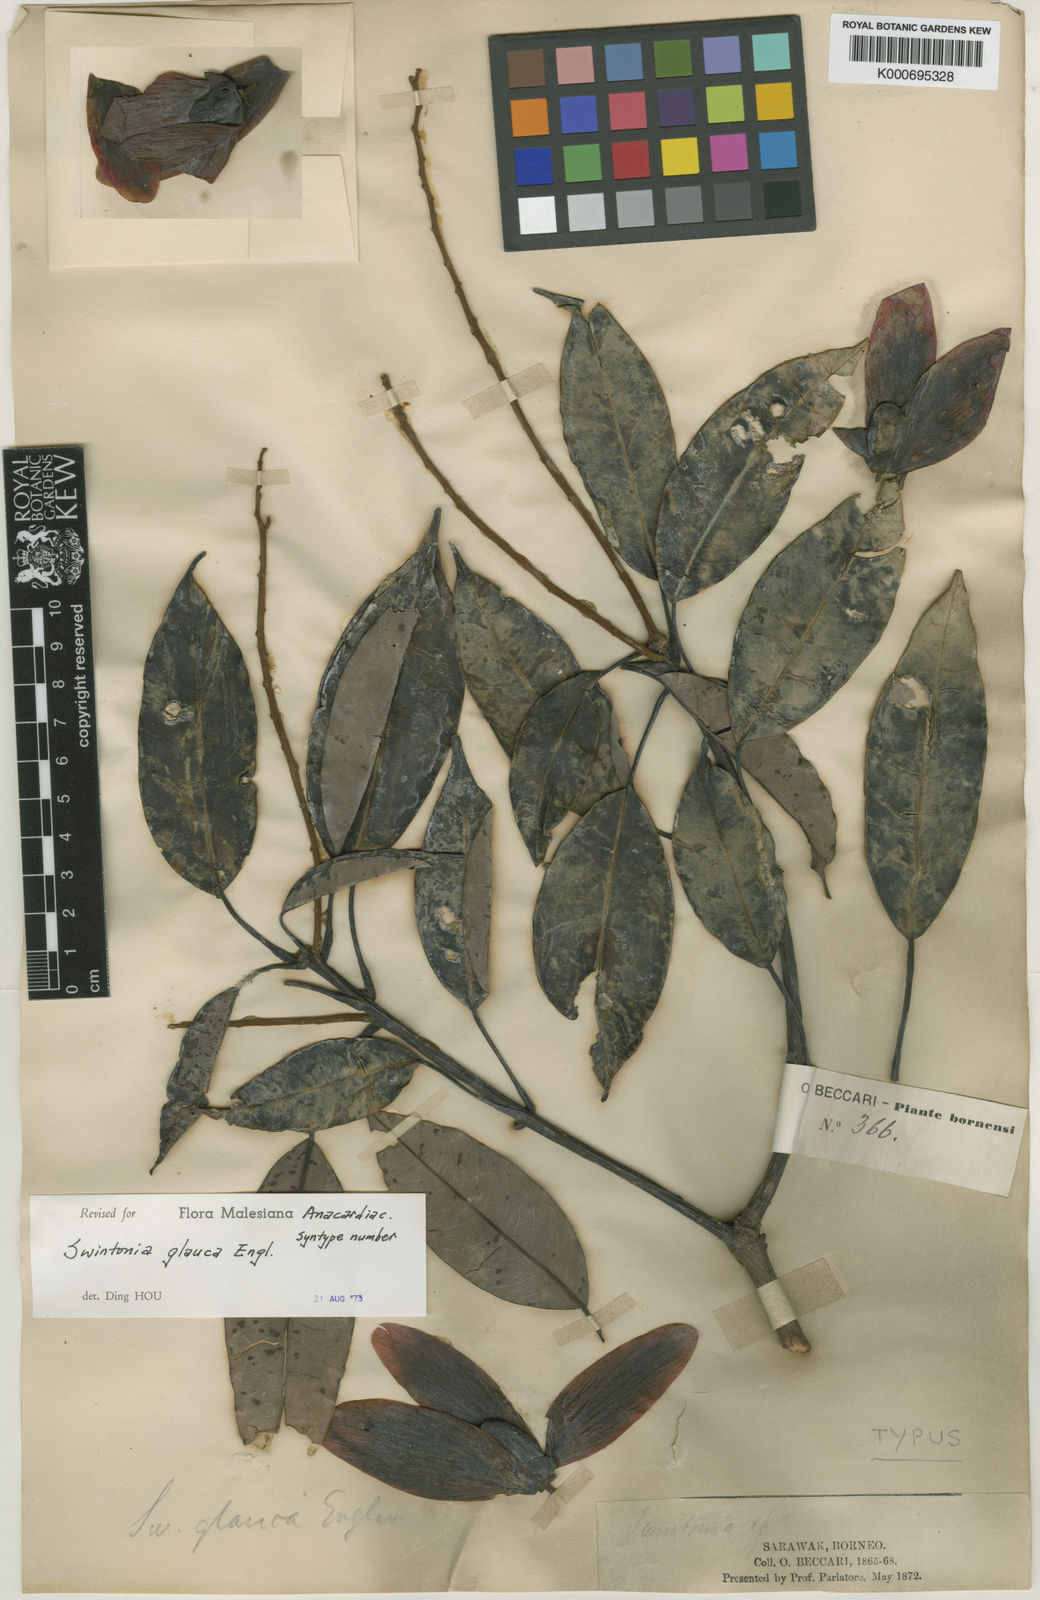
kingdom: Plantae
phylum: Tracheophyta
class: Magnoliopsida
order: Sapindales
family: Anacardiaceae
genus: Swintonia
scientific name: Swintonia glauca
